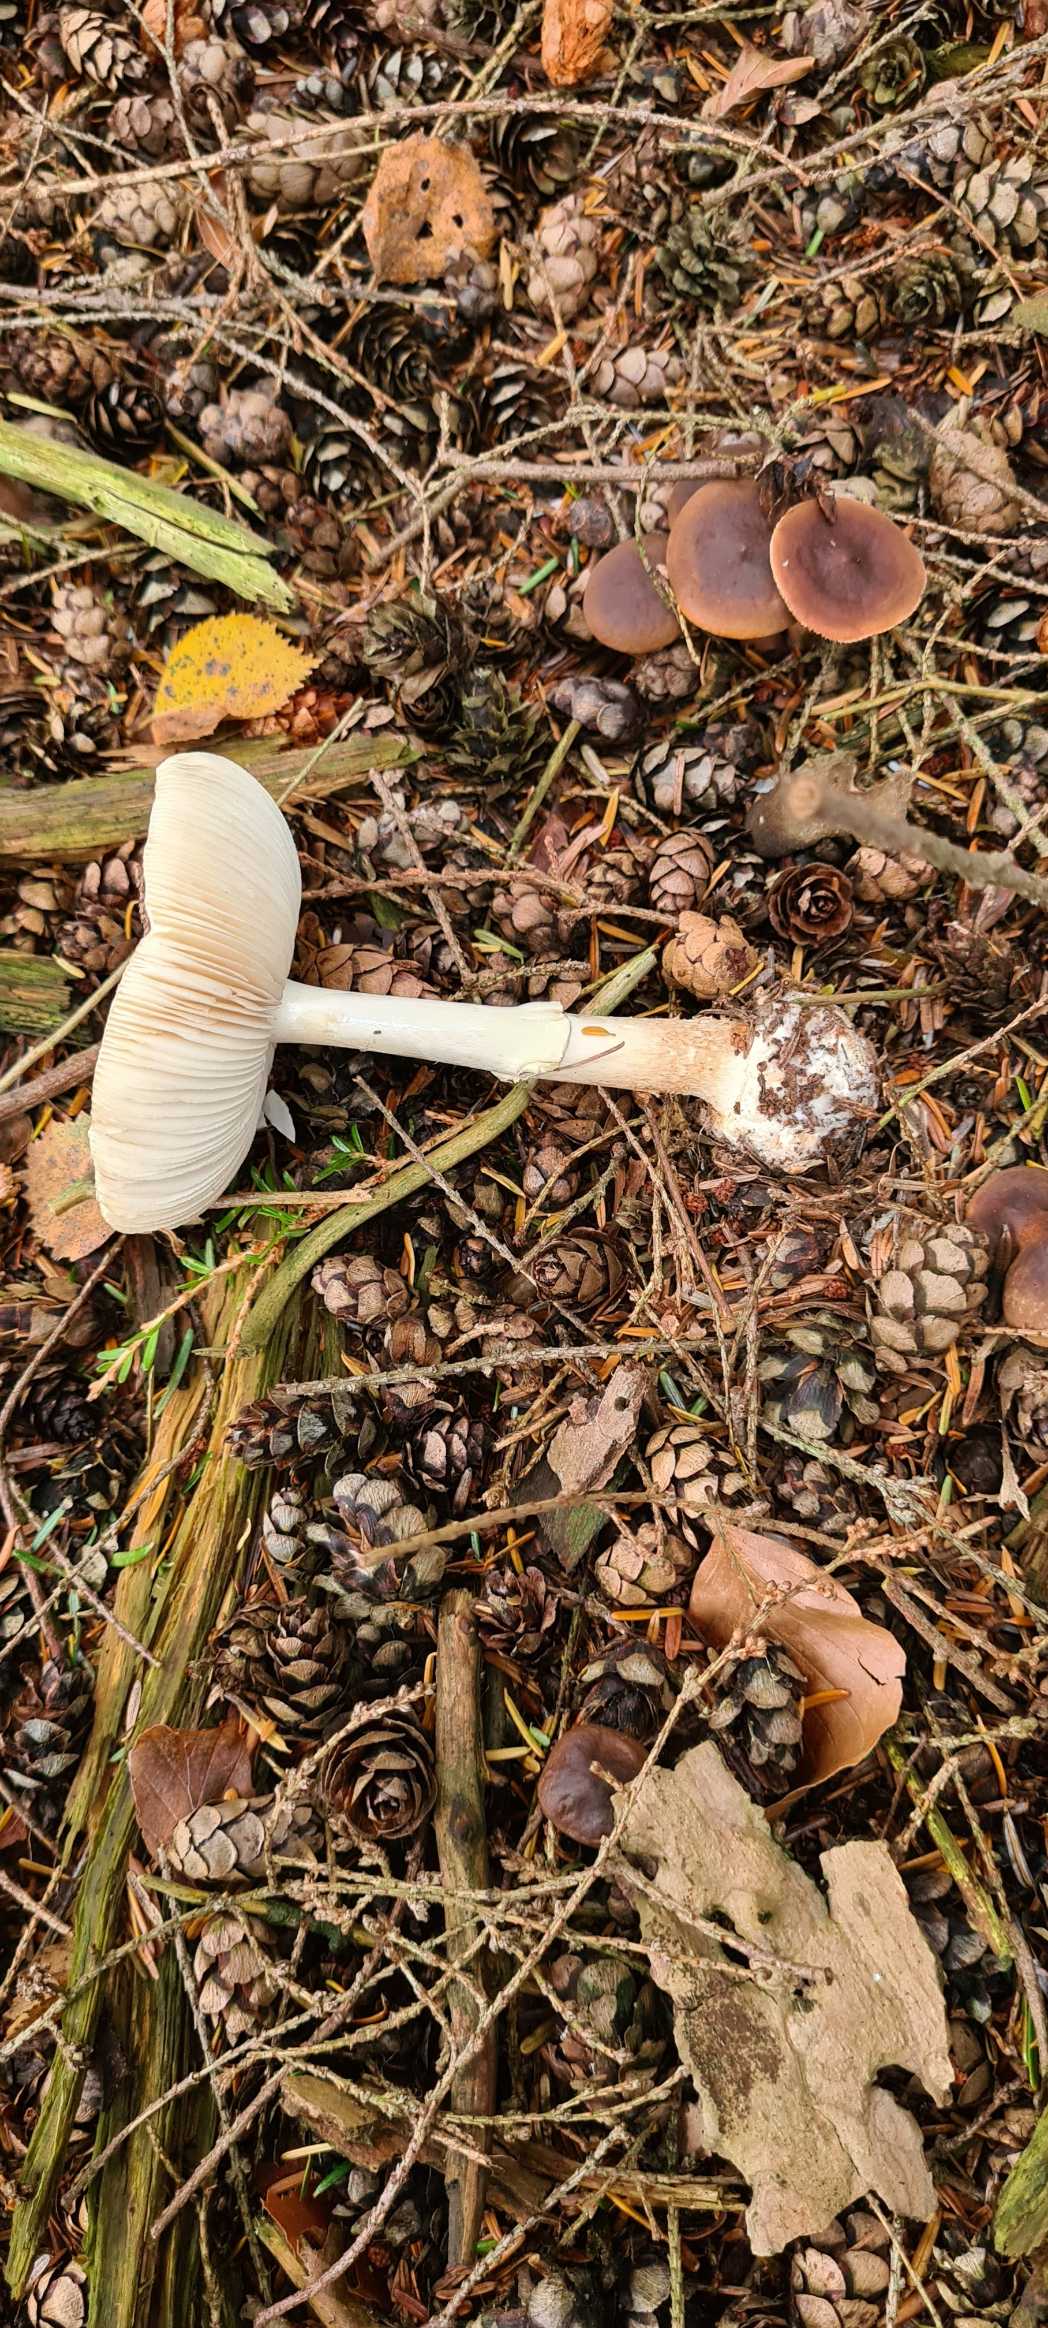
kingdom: Fungi
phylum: Basidiomycota
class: Agaricomycetes
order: Agaricales
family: Amanitaceae
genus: Amanita
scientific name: Amanita citrina
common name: Kugleknoldet fluesvamp
